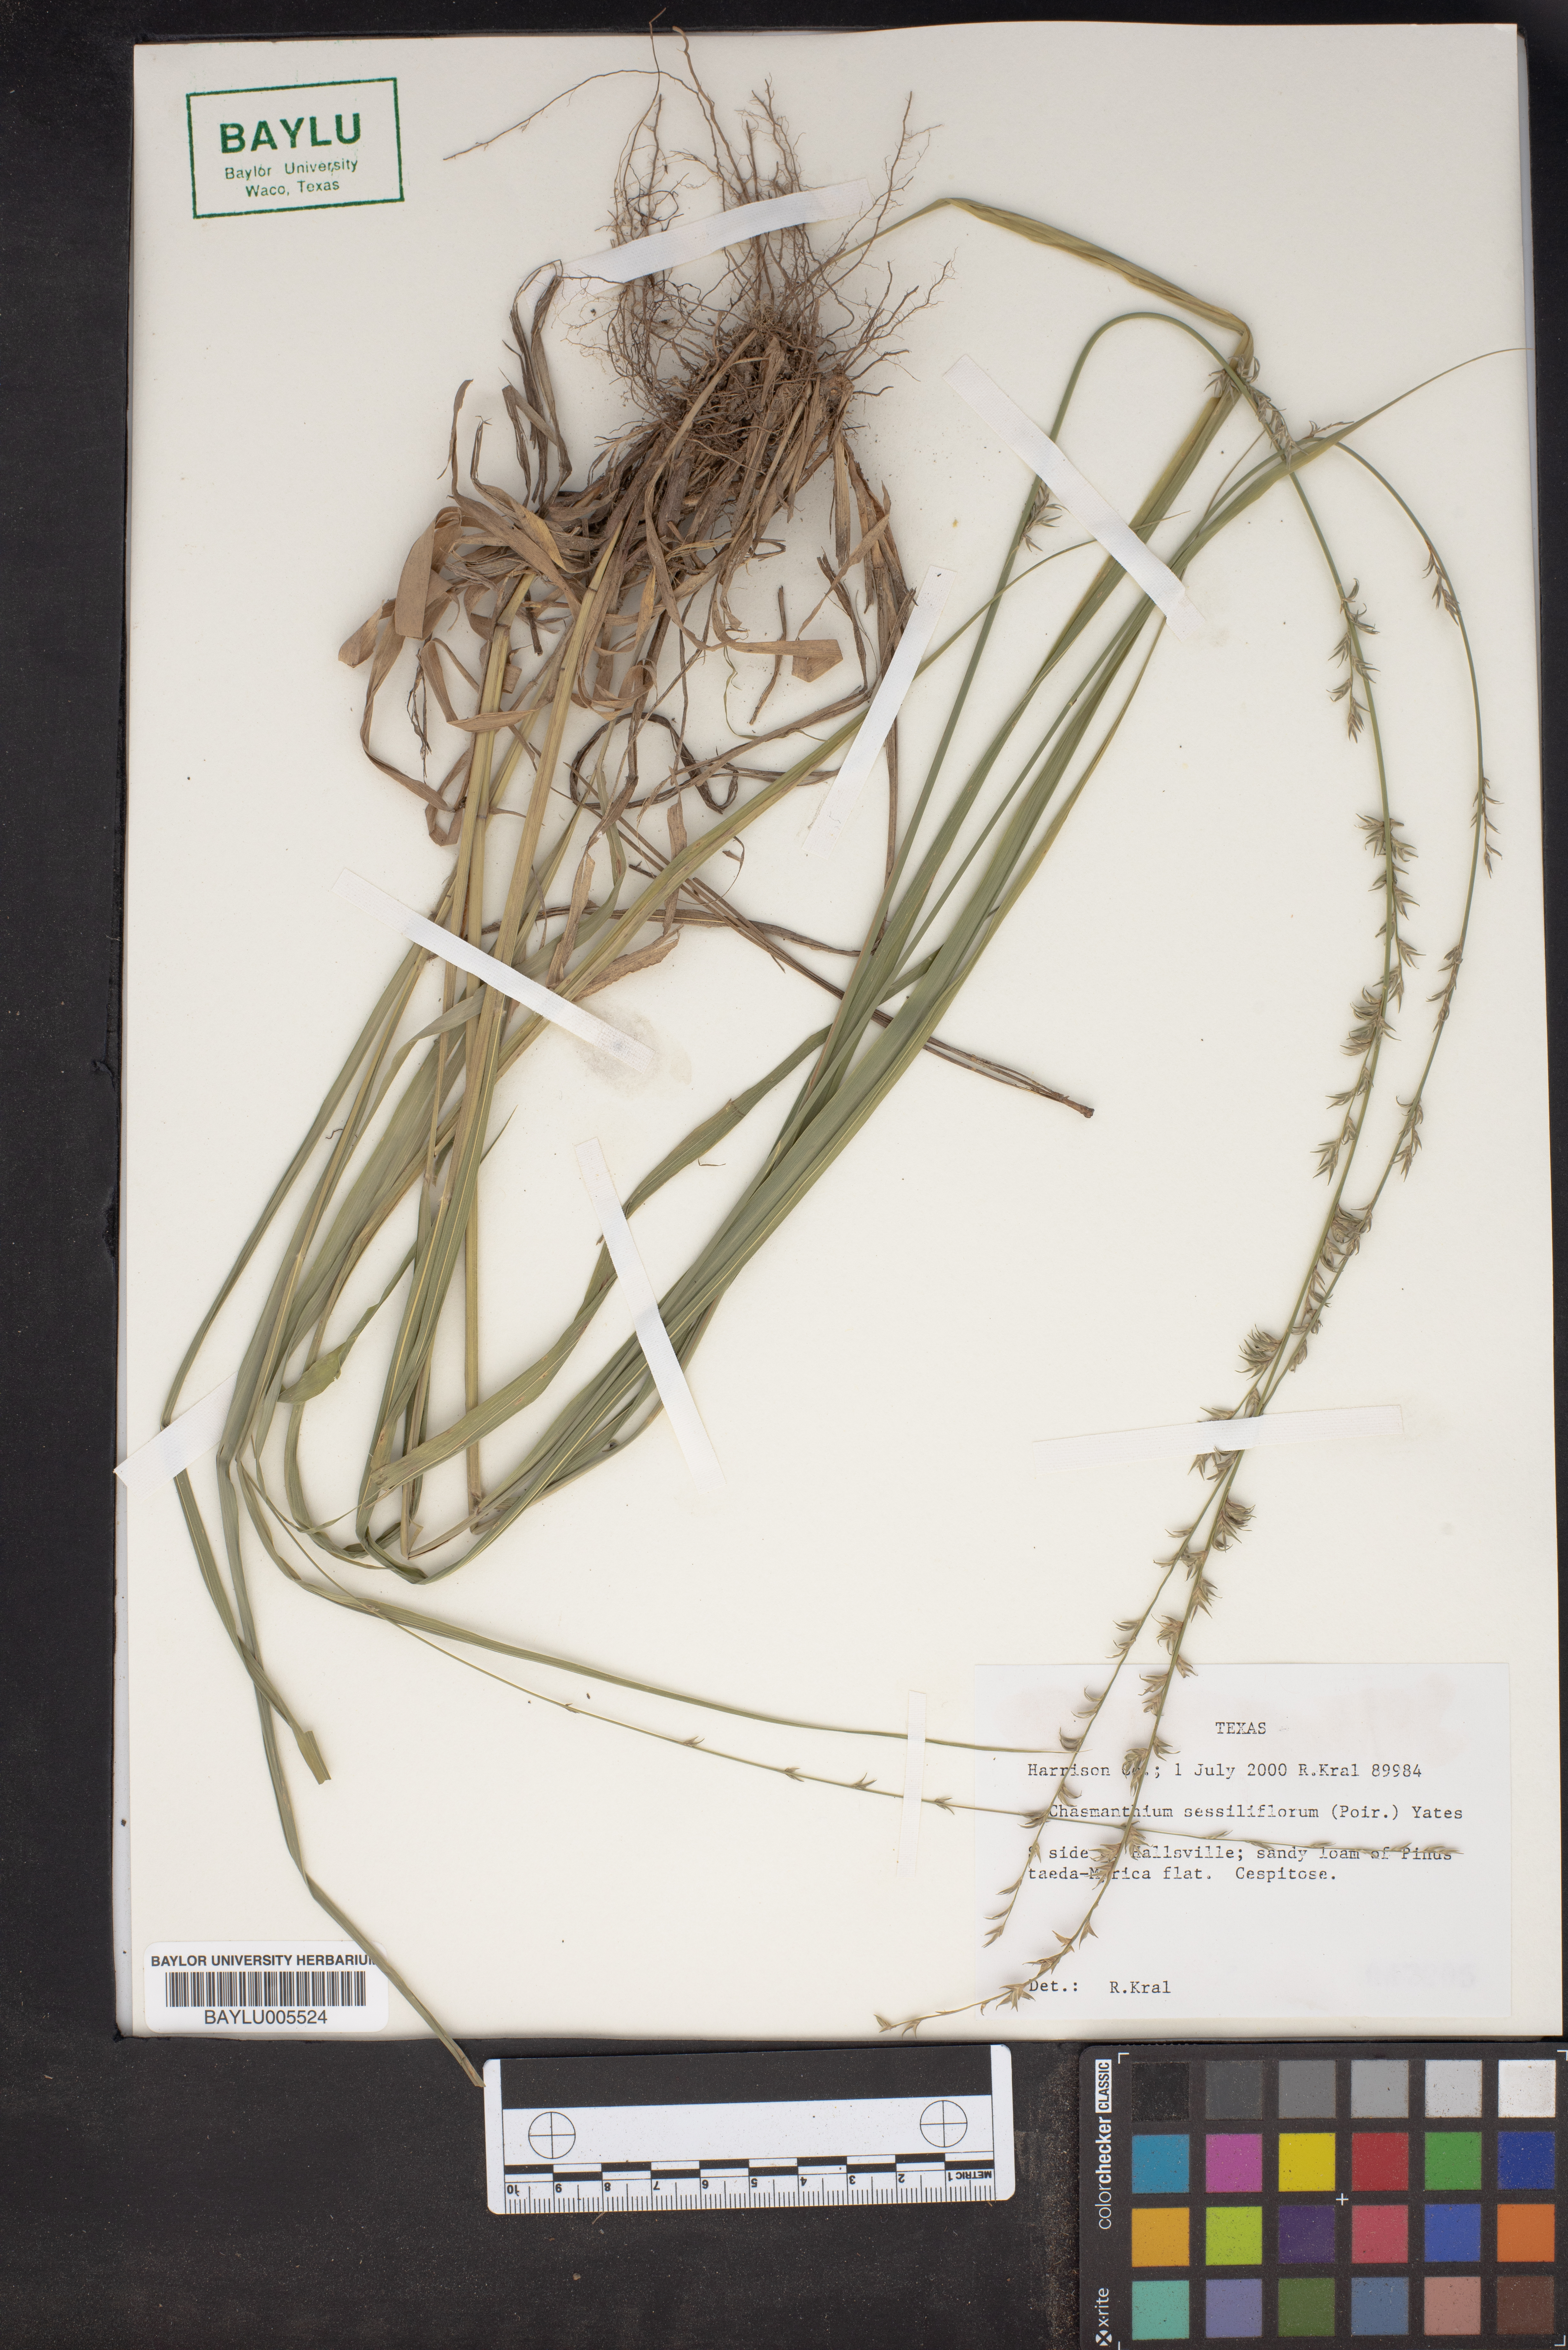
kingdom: Plantae
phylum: Tracheophyta
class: Liliopsida
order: Poales
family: Poaceae
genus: Chasmanthium
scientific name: Chasmanthium laxum
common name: Slender chasmanthium
